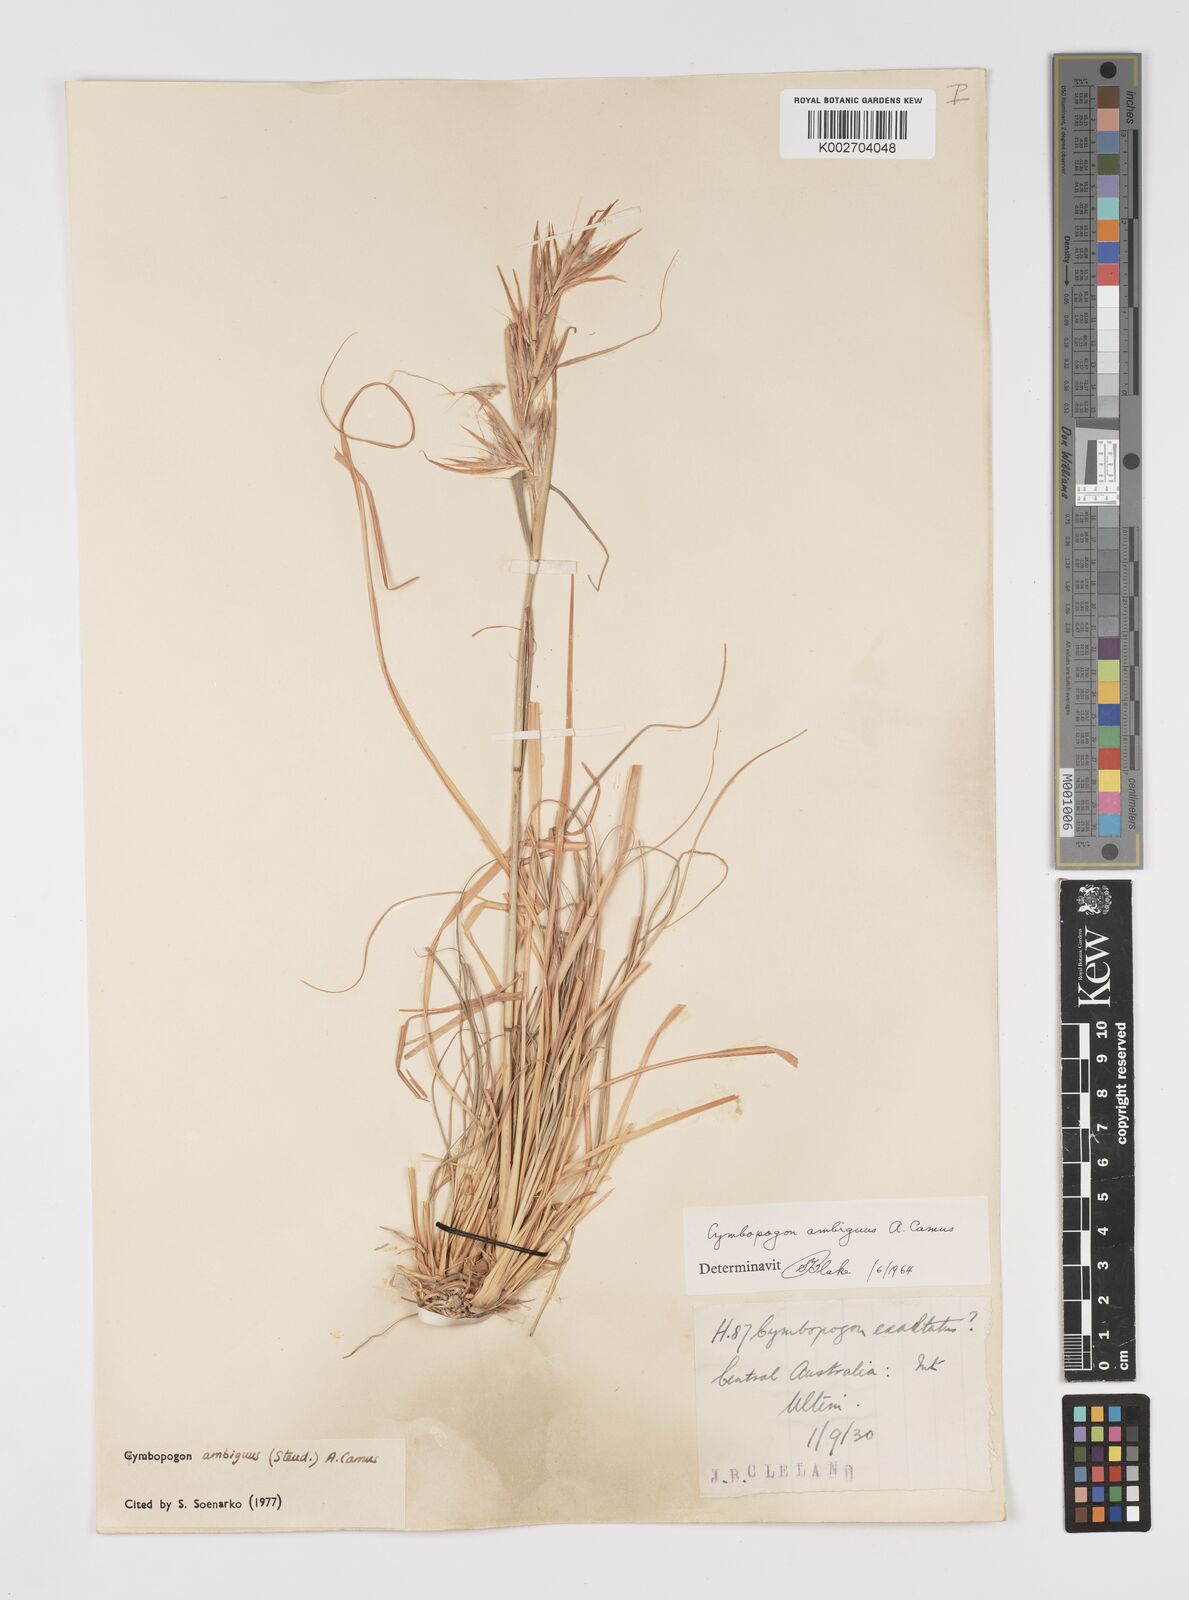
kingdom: Plantae
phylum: Tracheophyta
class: Liliopsida
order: Poales
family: Poaceae
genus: Cymbopogon
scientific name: Cymbopogon ambiguus
